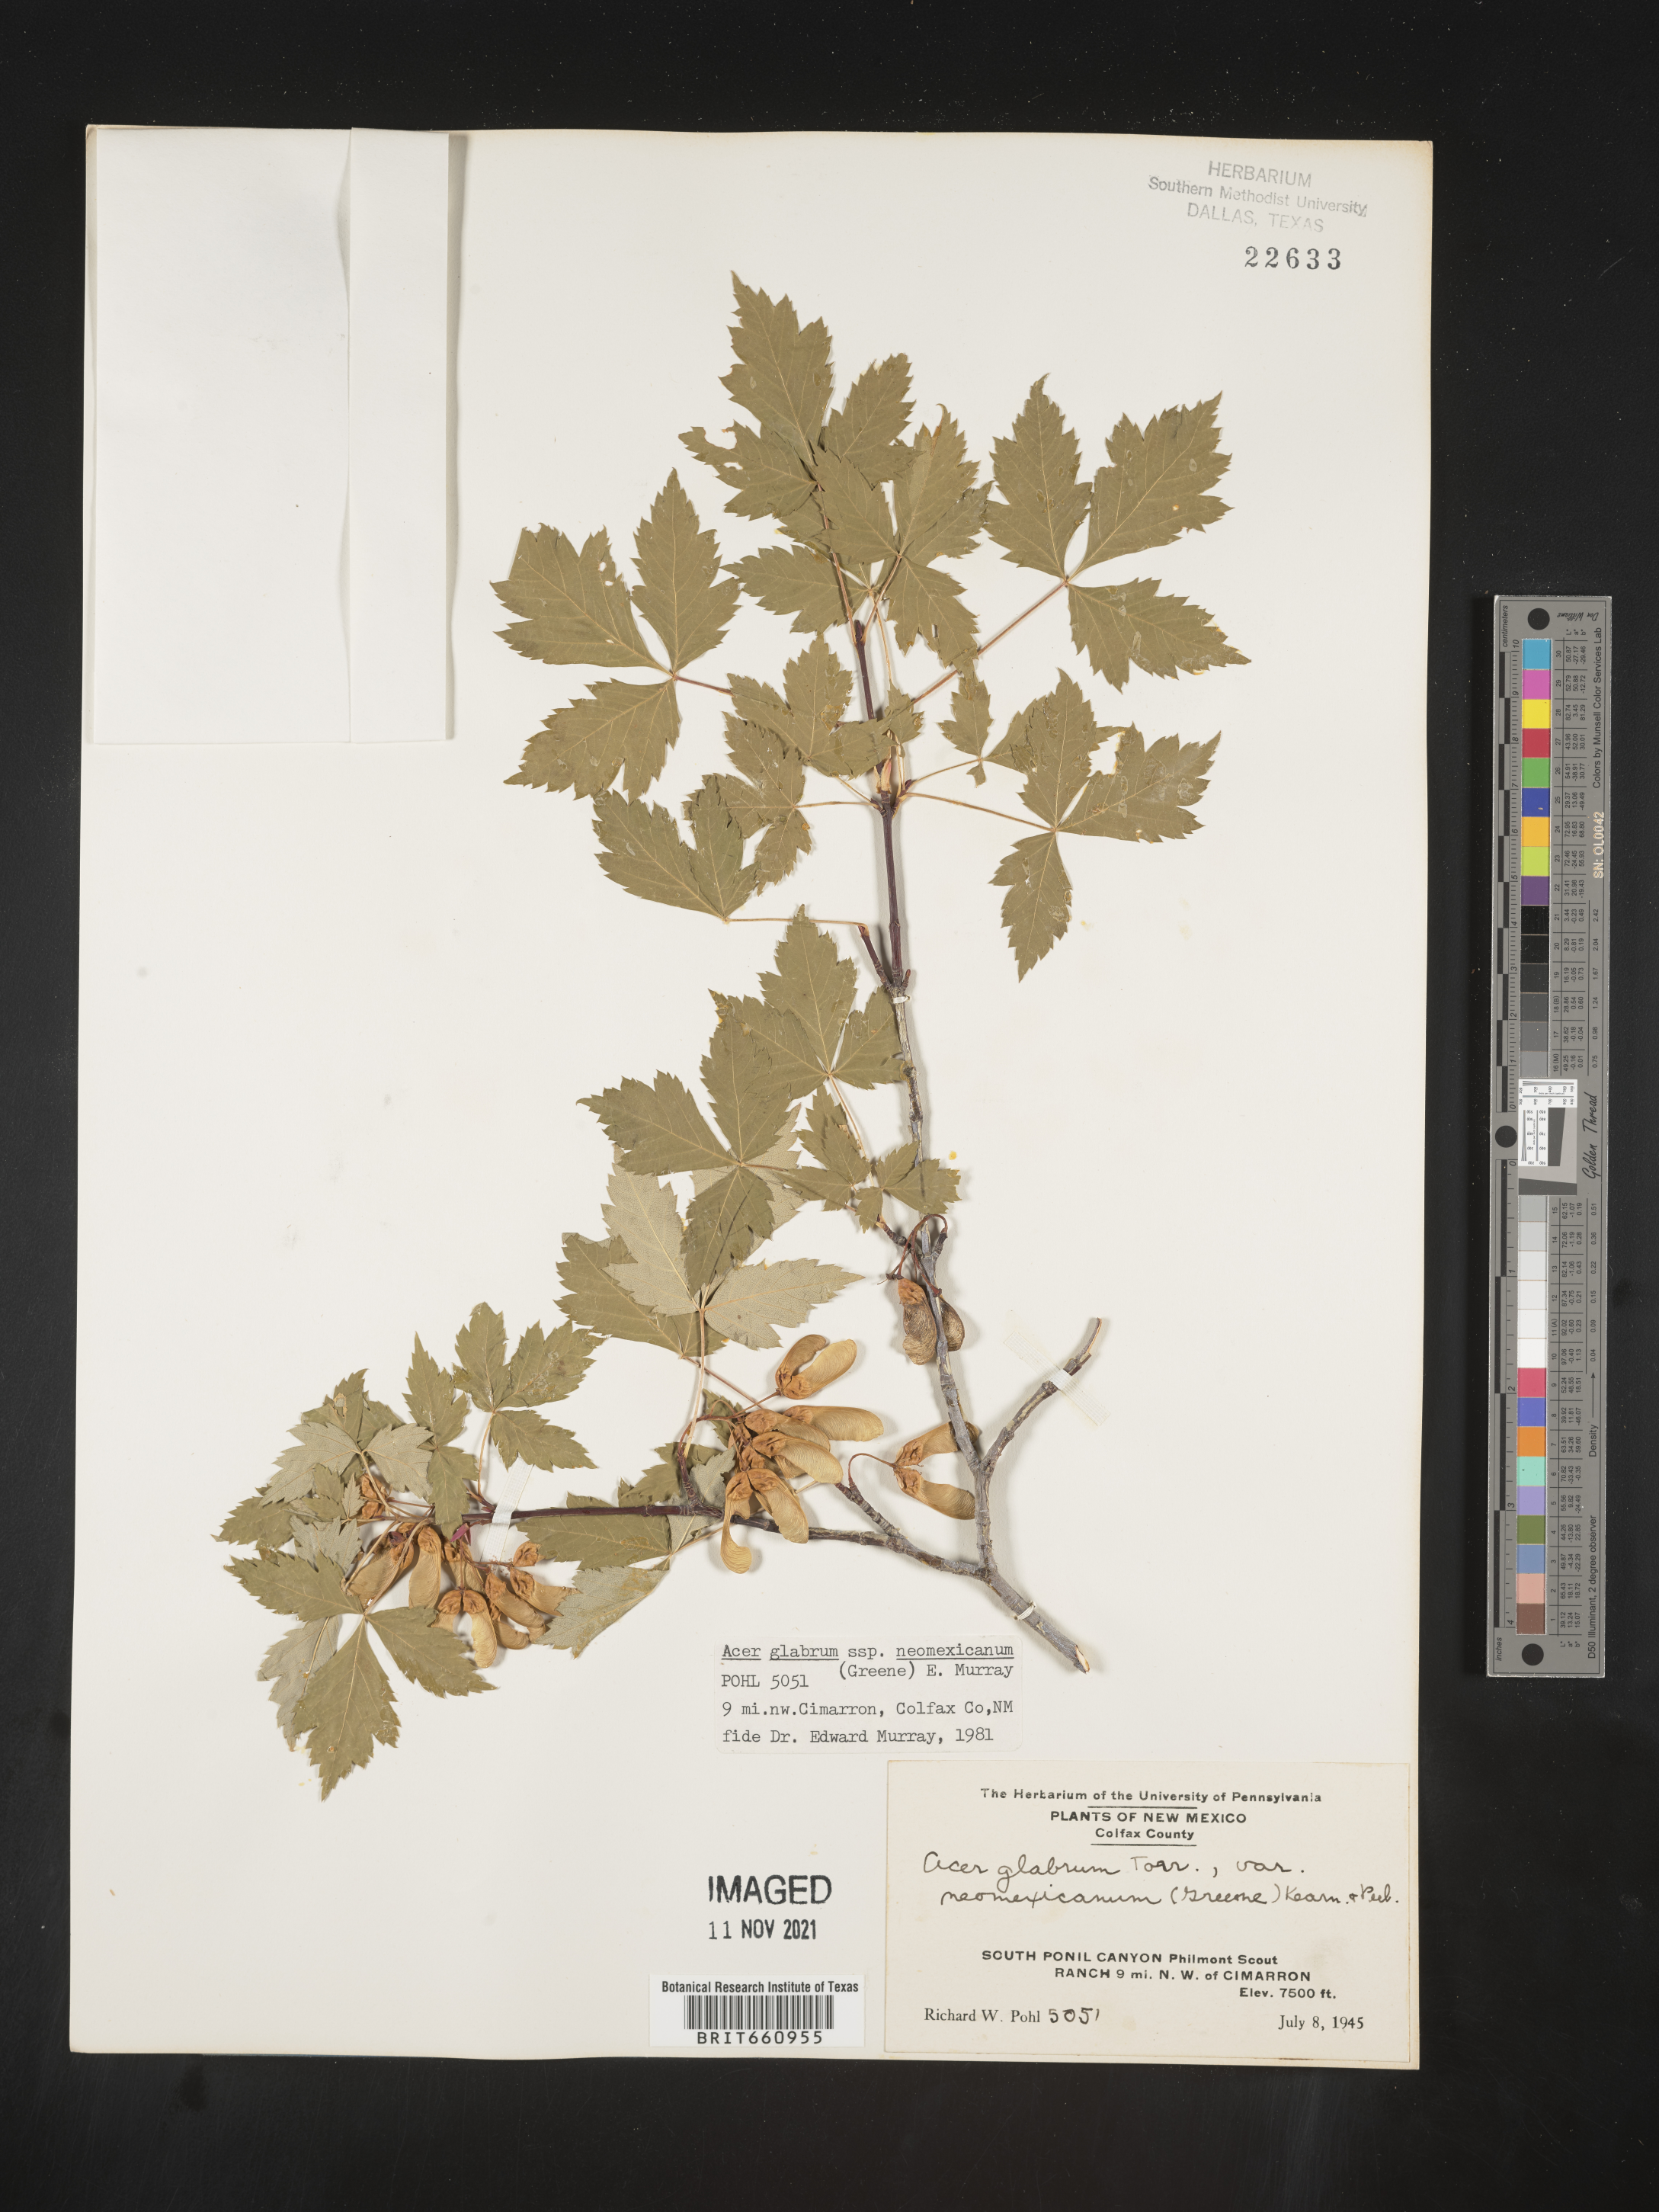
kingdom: Plantae
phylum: Tracheophyta
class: Magnoliopsida
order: Sapindales
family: Sapindaceae
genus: Acer
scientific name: Acer glabrum
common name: Rocky mountain maple
